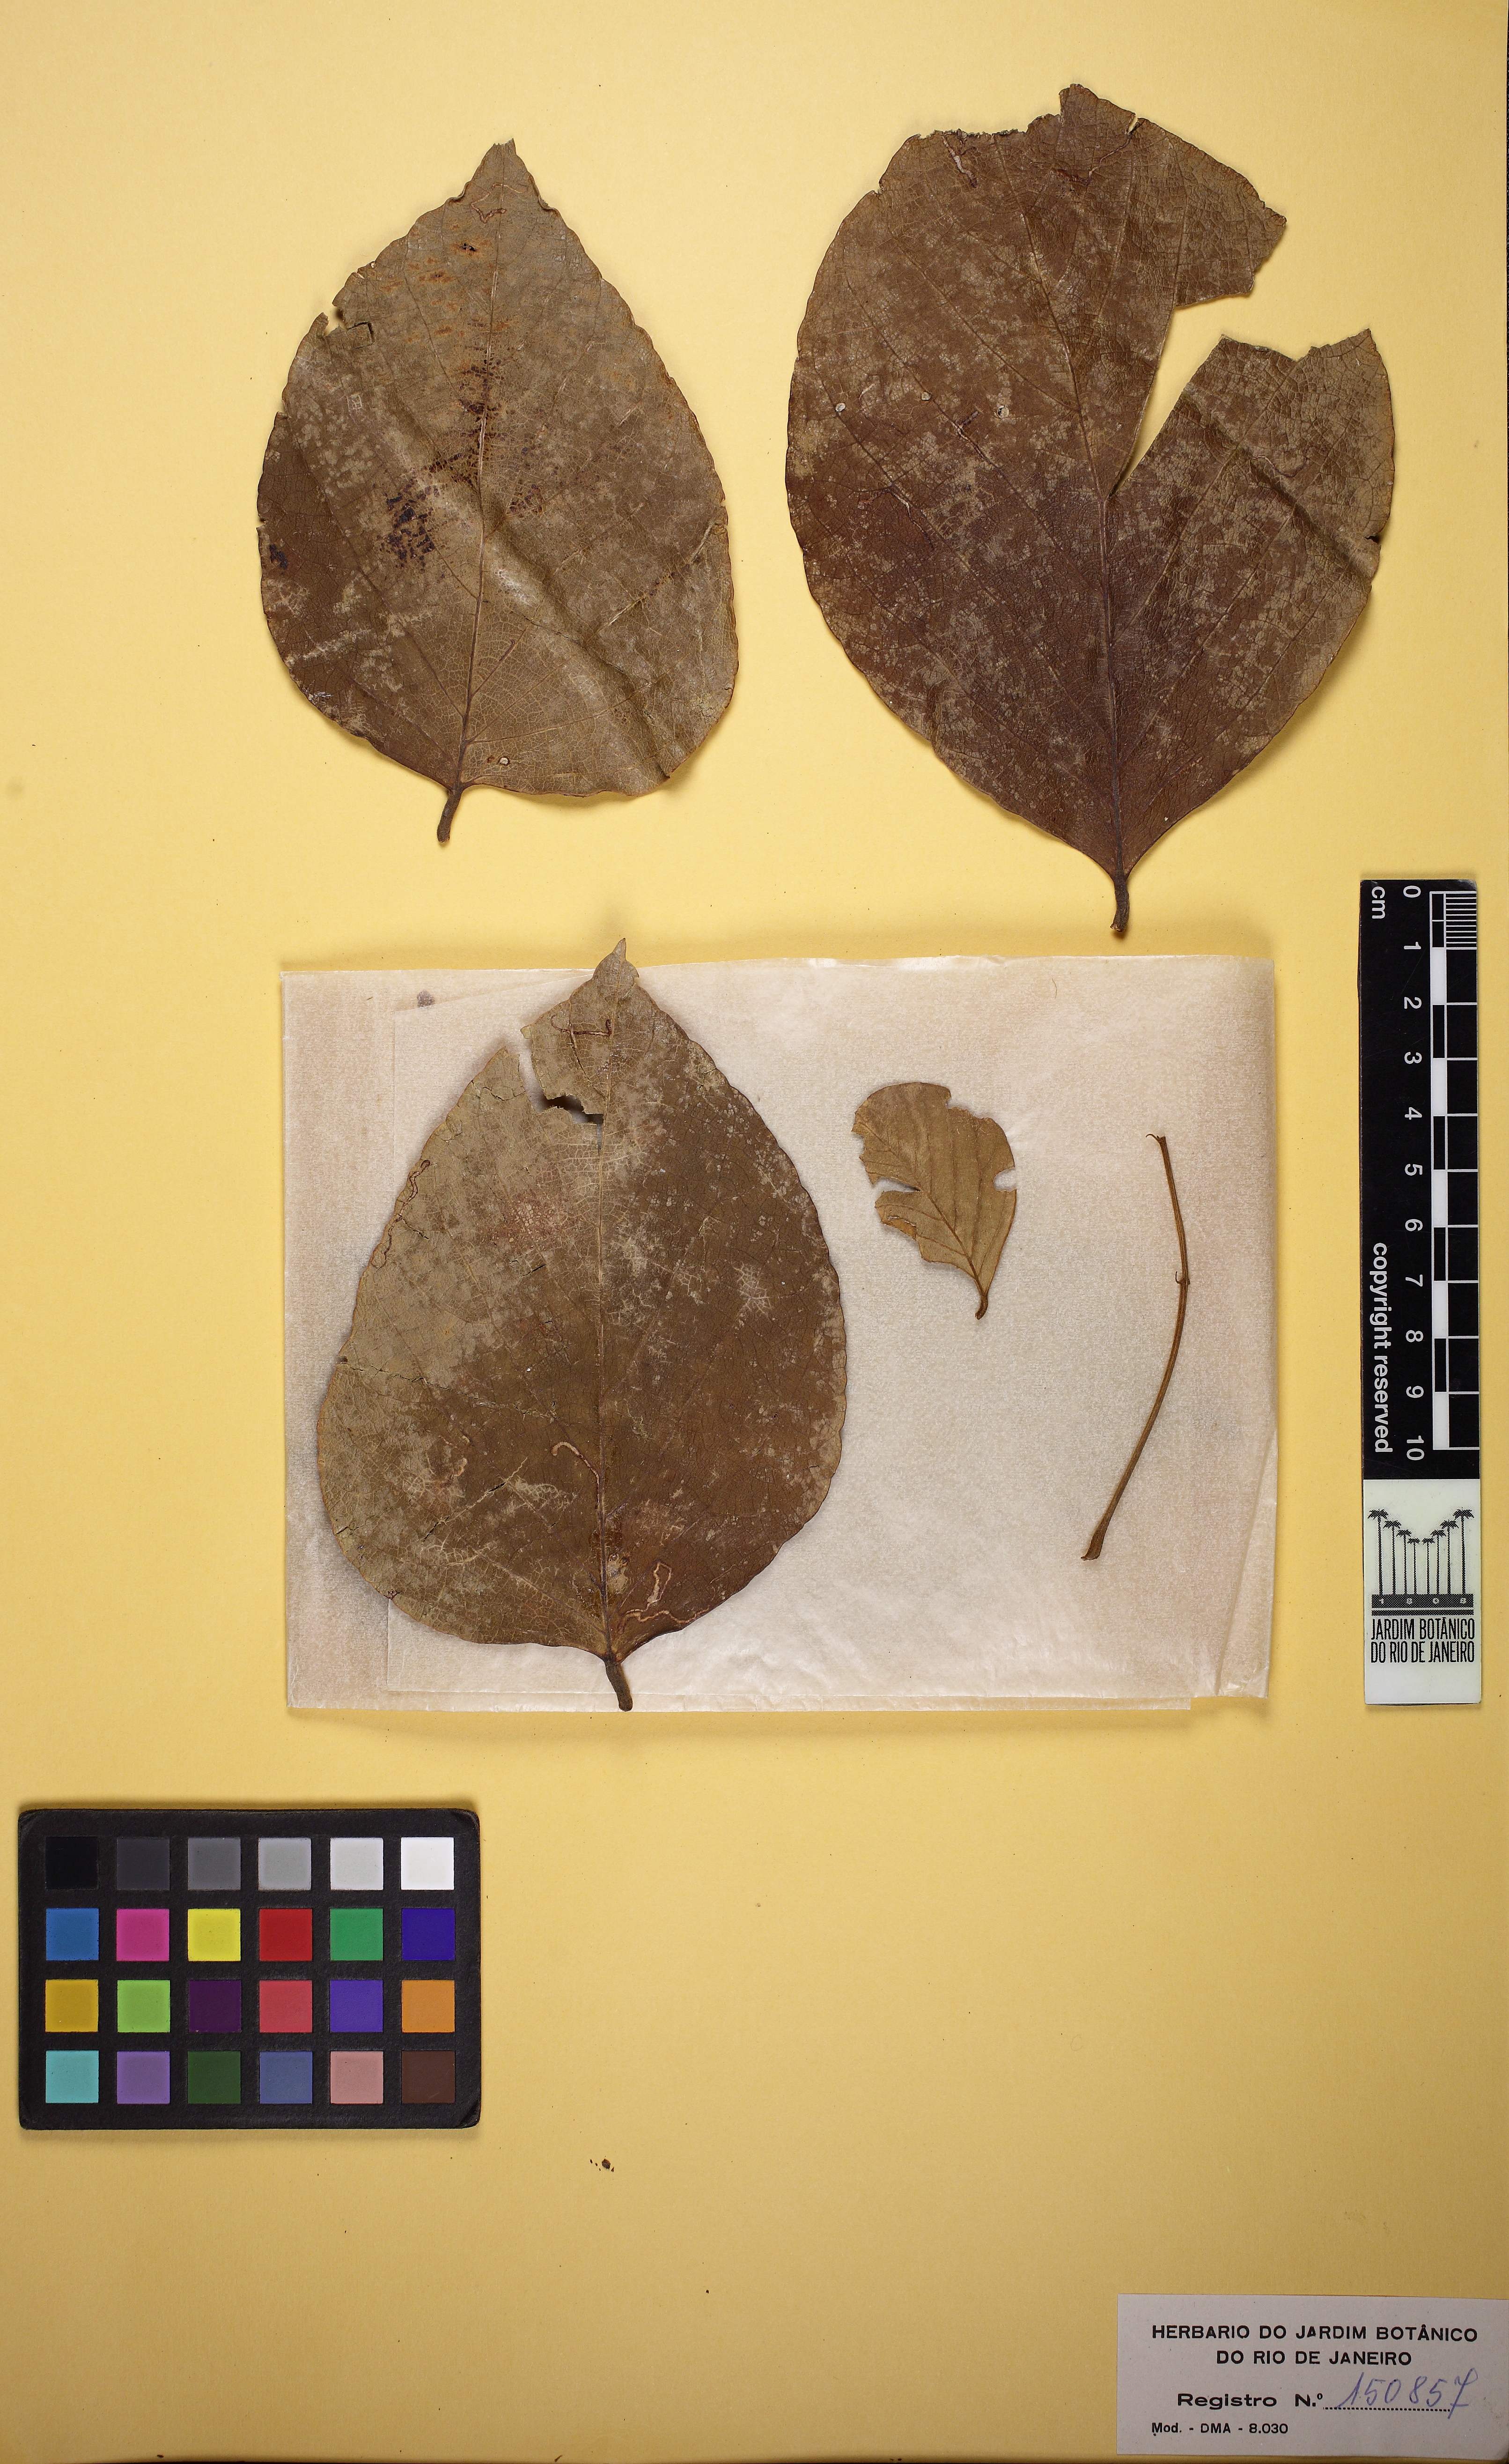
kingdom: Plantae
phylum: Tracheophyta
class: Magnoliopsida
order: Fabales
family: Fabaceae
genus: Platycyamus
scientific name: Platycyamus regnellii
